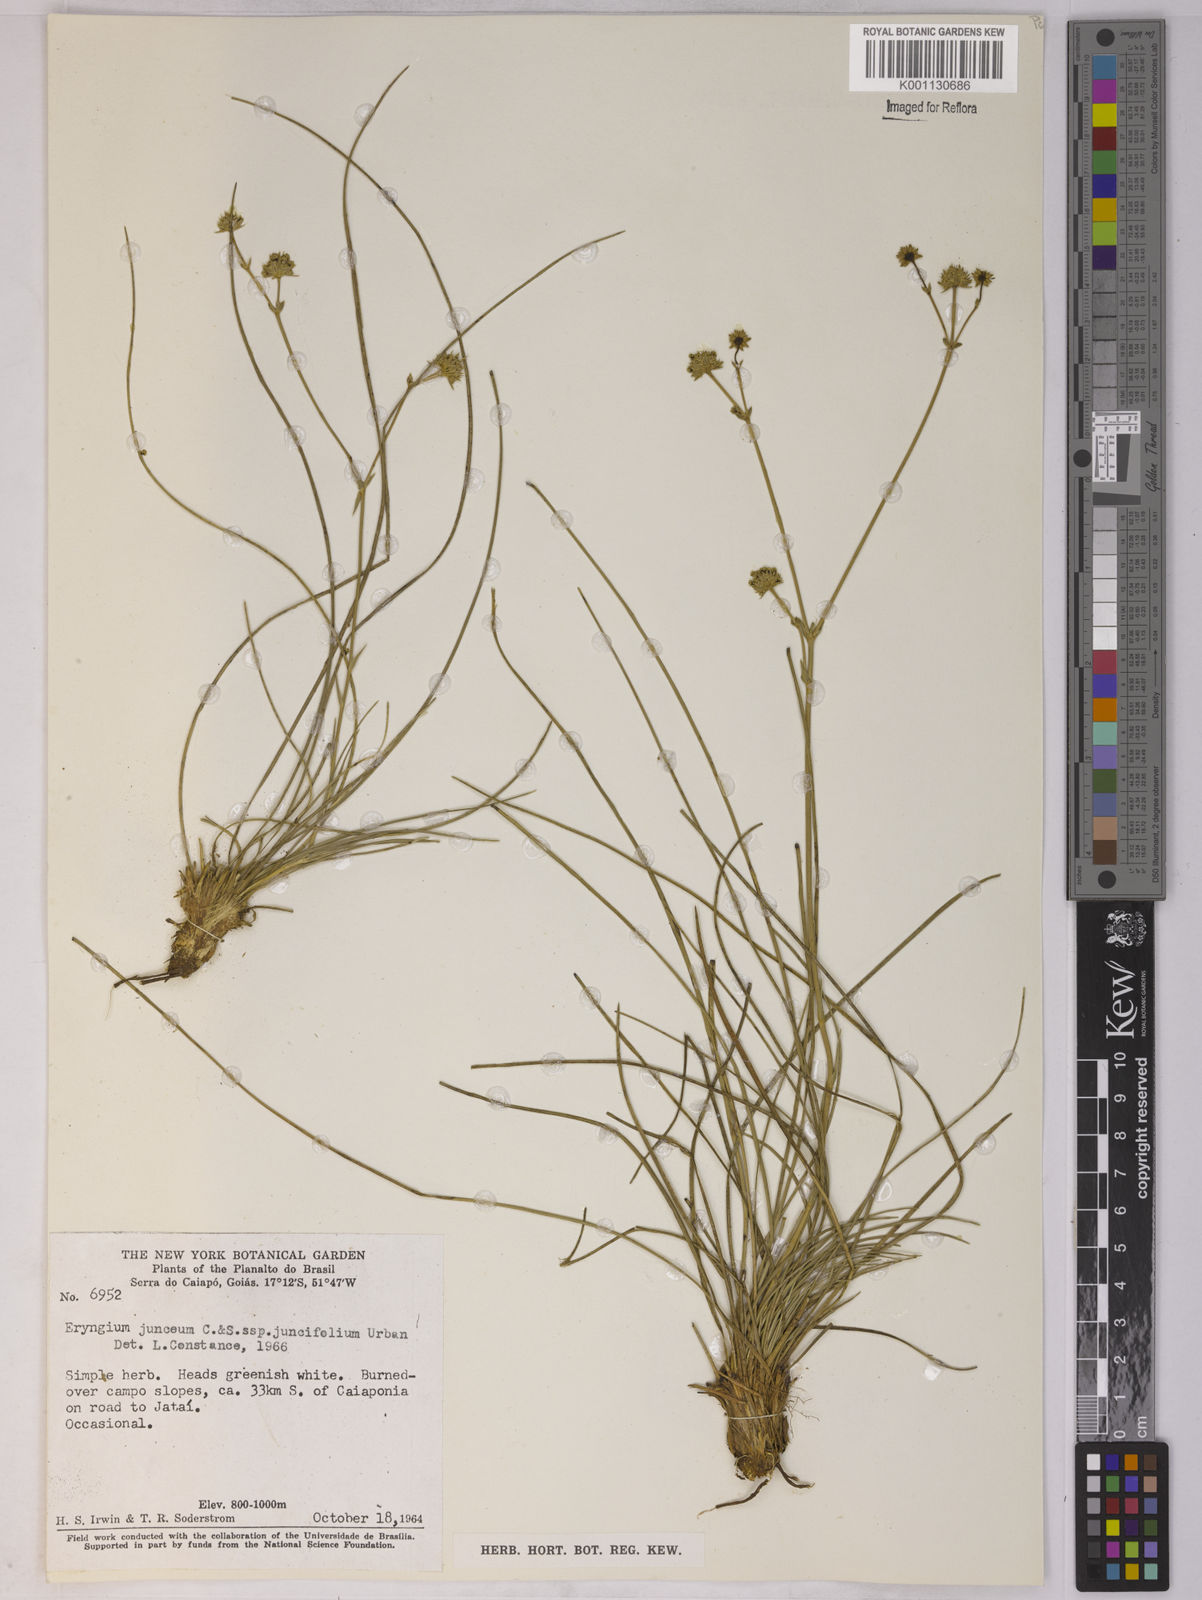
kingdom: Plantae
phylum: Tracheophyta
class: Magnoliopsida
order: Apiales
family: Apiaceae
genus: Eryngium
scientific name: Eryngium juncifolium
